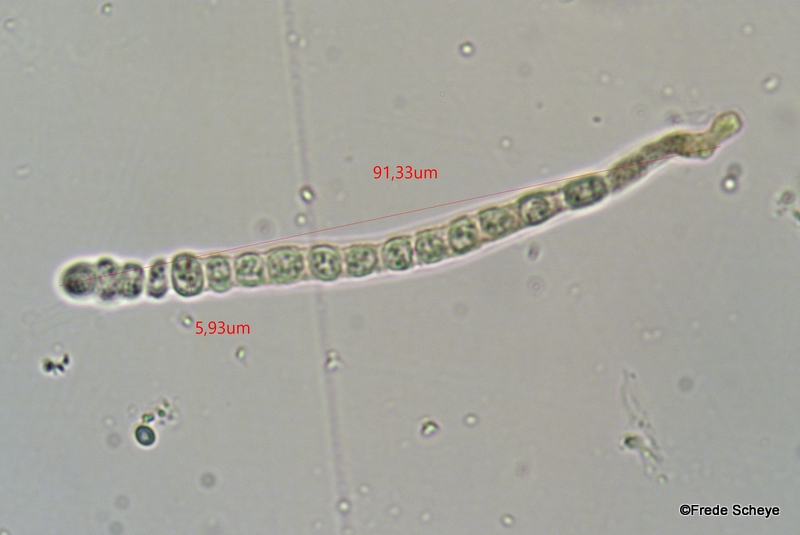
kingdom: Fungi
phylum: Ascomycota
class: Sordariomycetes
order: Hypocreales
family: Hypocreaceae
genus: Trichoderma
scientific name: Trichoderma europaeum
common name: rosabrun kødkerne
